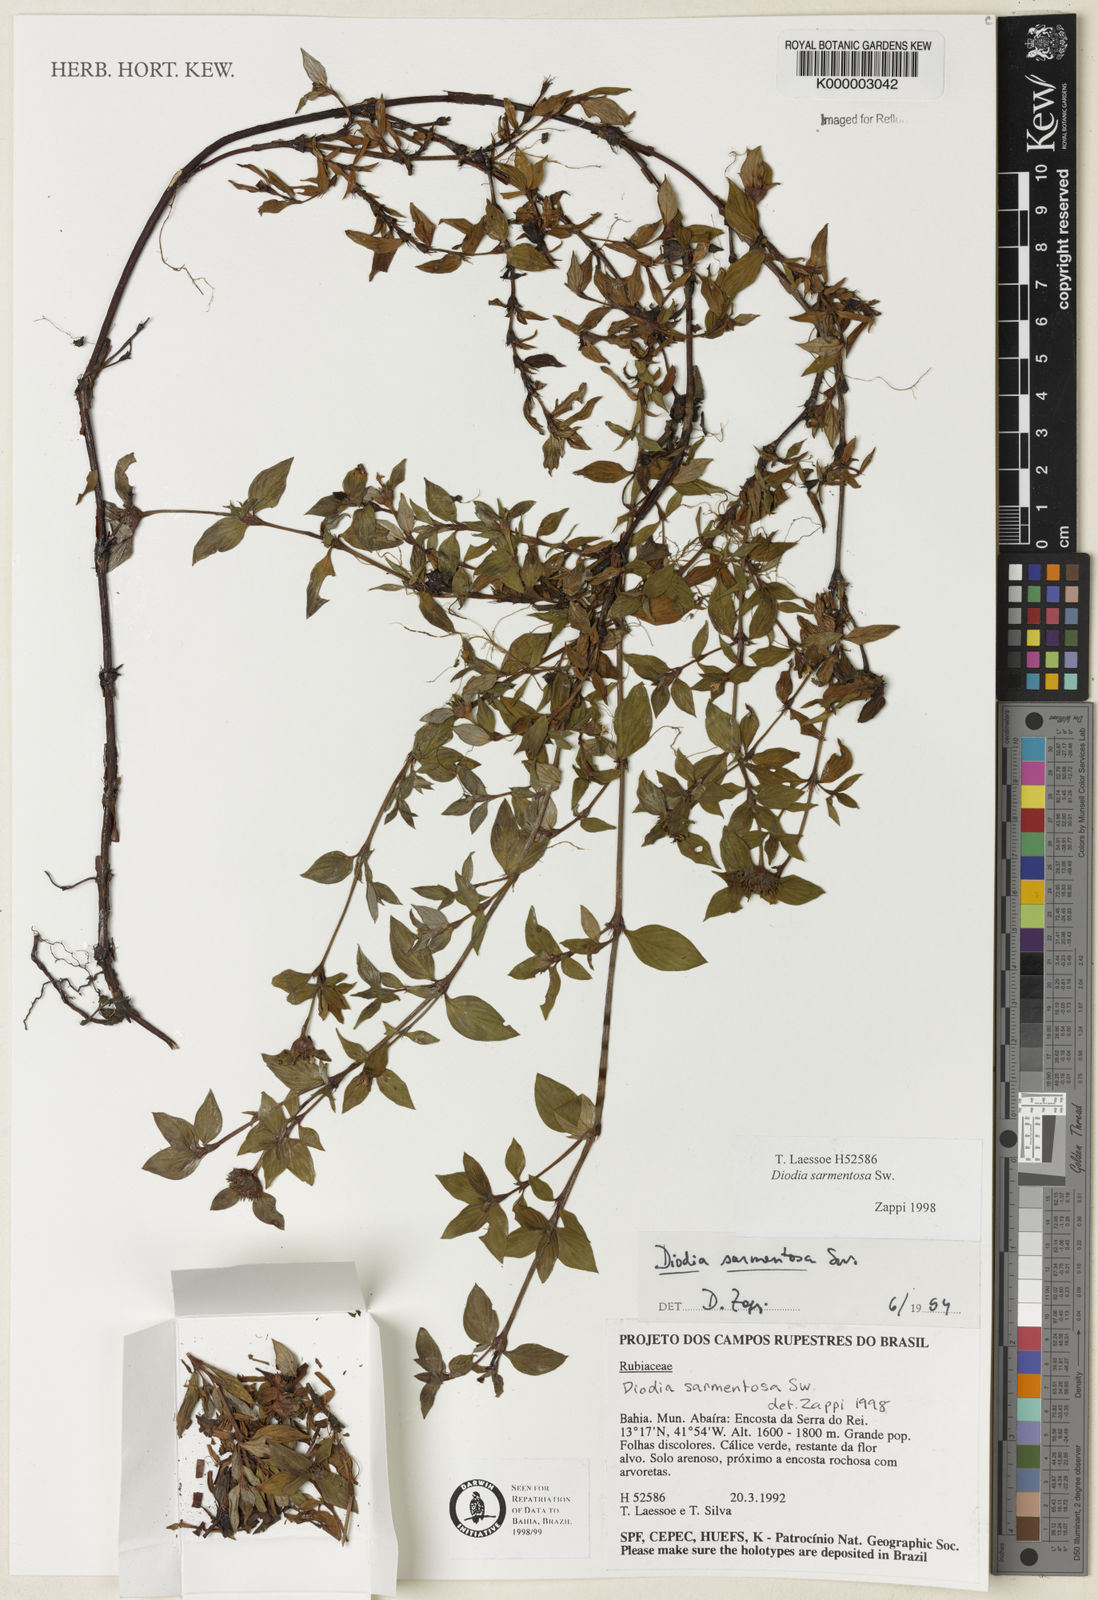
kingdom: Plantae
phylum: Tracheophyta
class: Magnoliopsida
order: Gentianales
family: Rubiaceae
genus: Hexasepalum
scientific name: Hexasepalum sarmentosum
